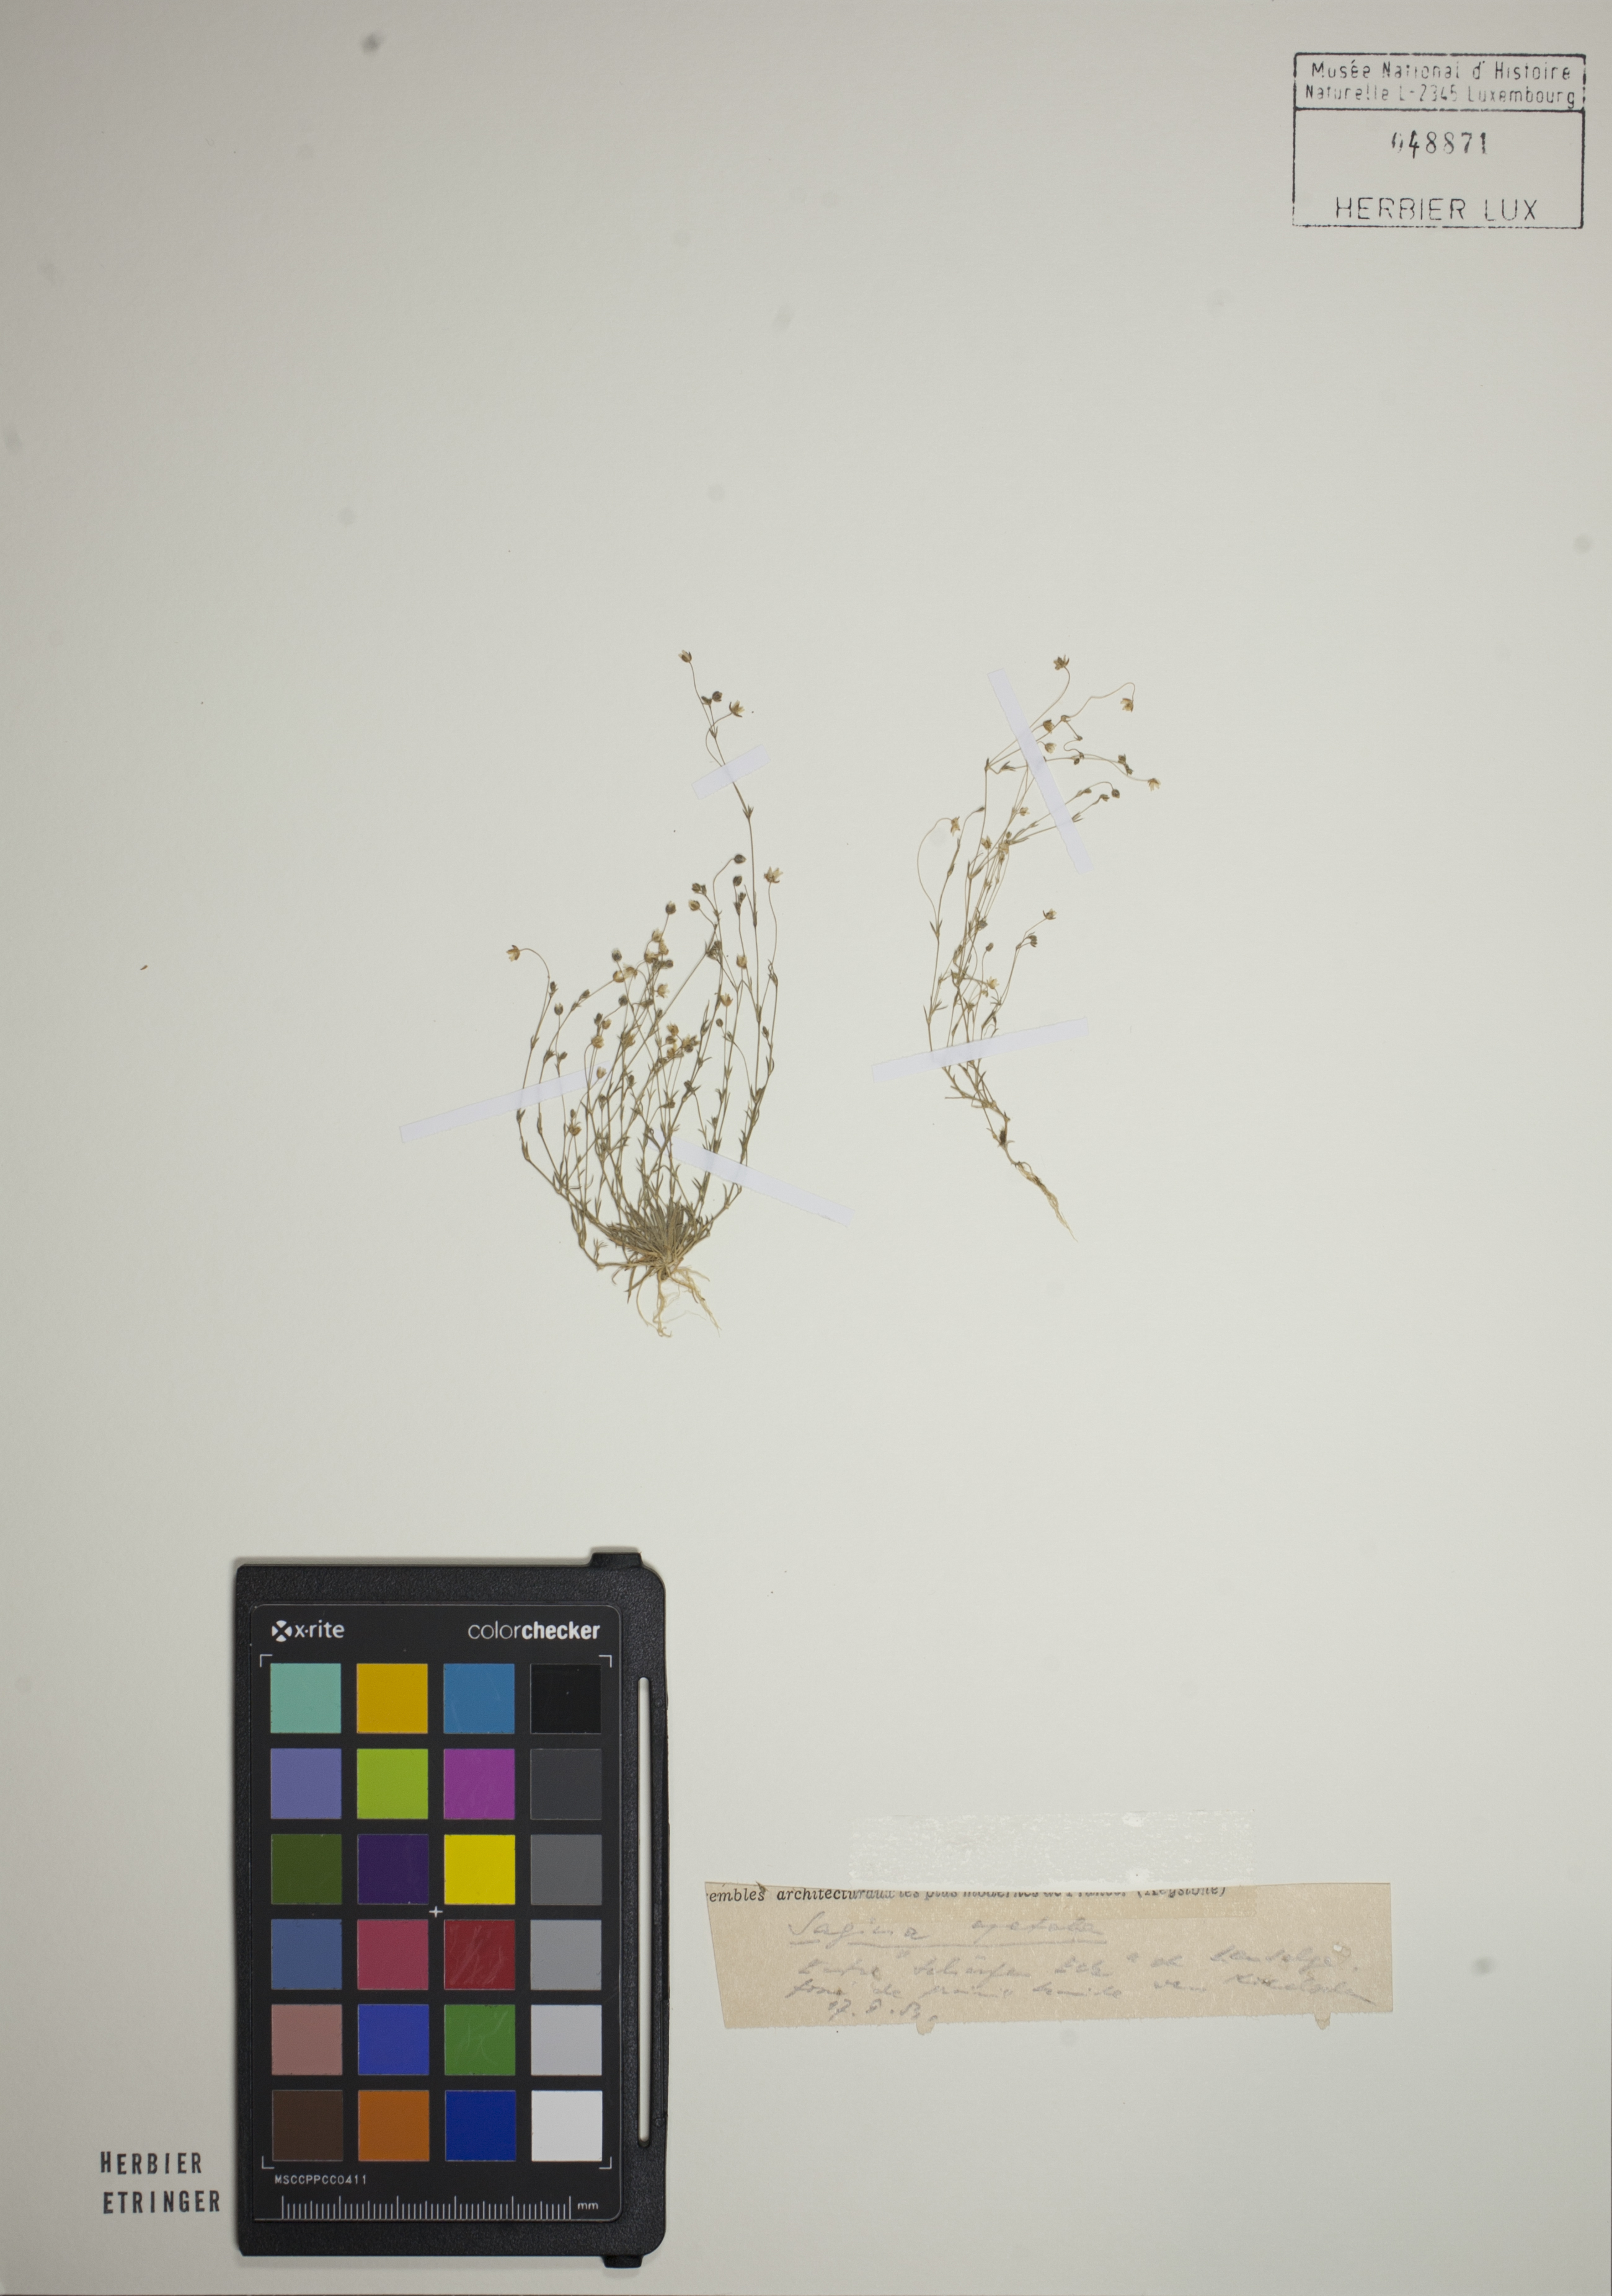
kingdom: Plantae
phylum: Tracheophyta
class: Magnoliopsida
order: Caryophyllales
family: Caryophyllaceae
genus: Sagina
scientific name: Sagina apetala
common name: Annual pearlwort
